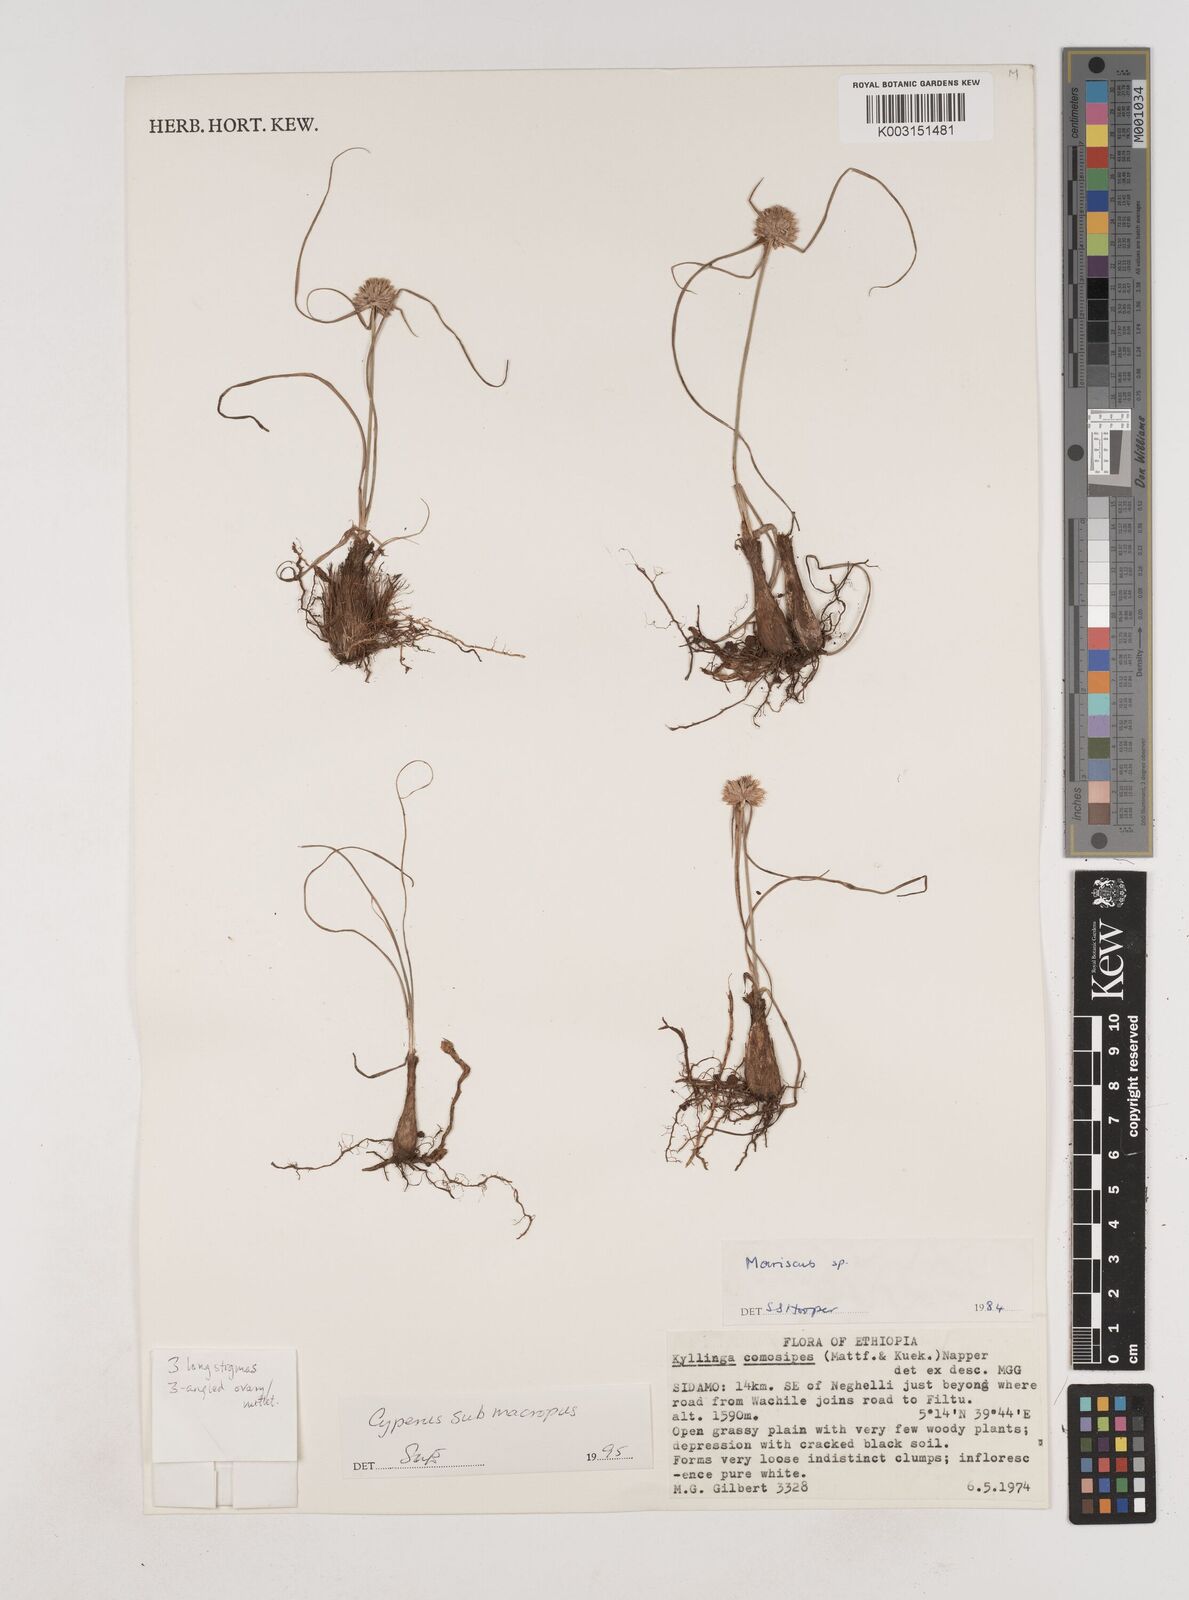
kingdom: Plantae
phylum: Tracheophyta
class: Liliopsida
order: Poales
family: Cyperaceae
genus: Cyperus
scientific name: Cyperus mollipes
